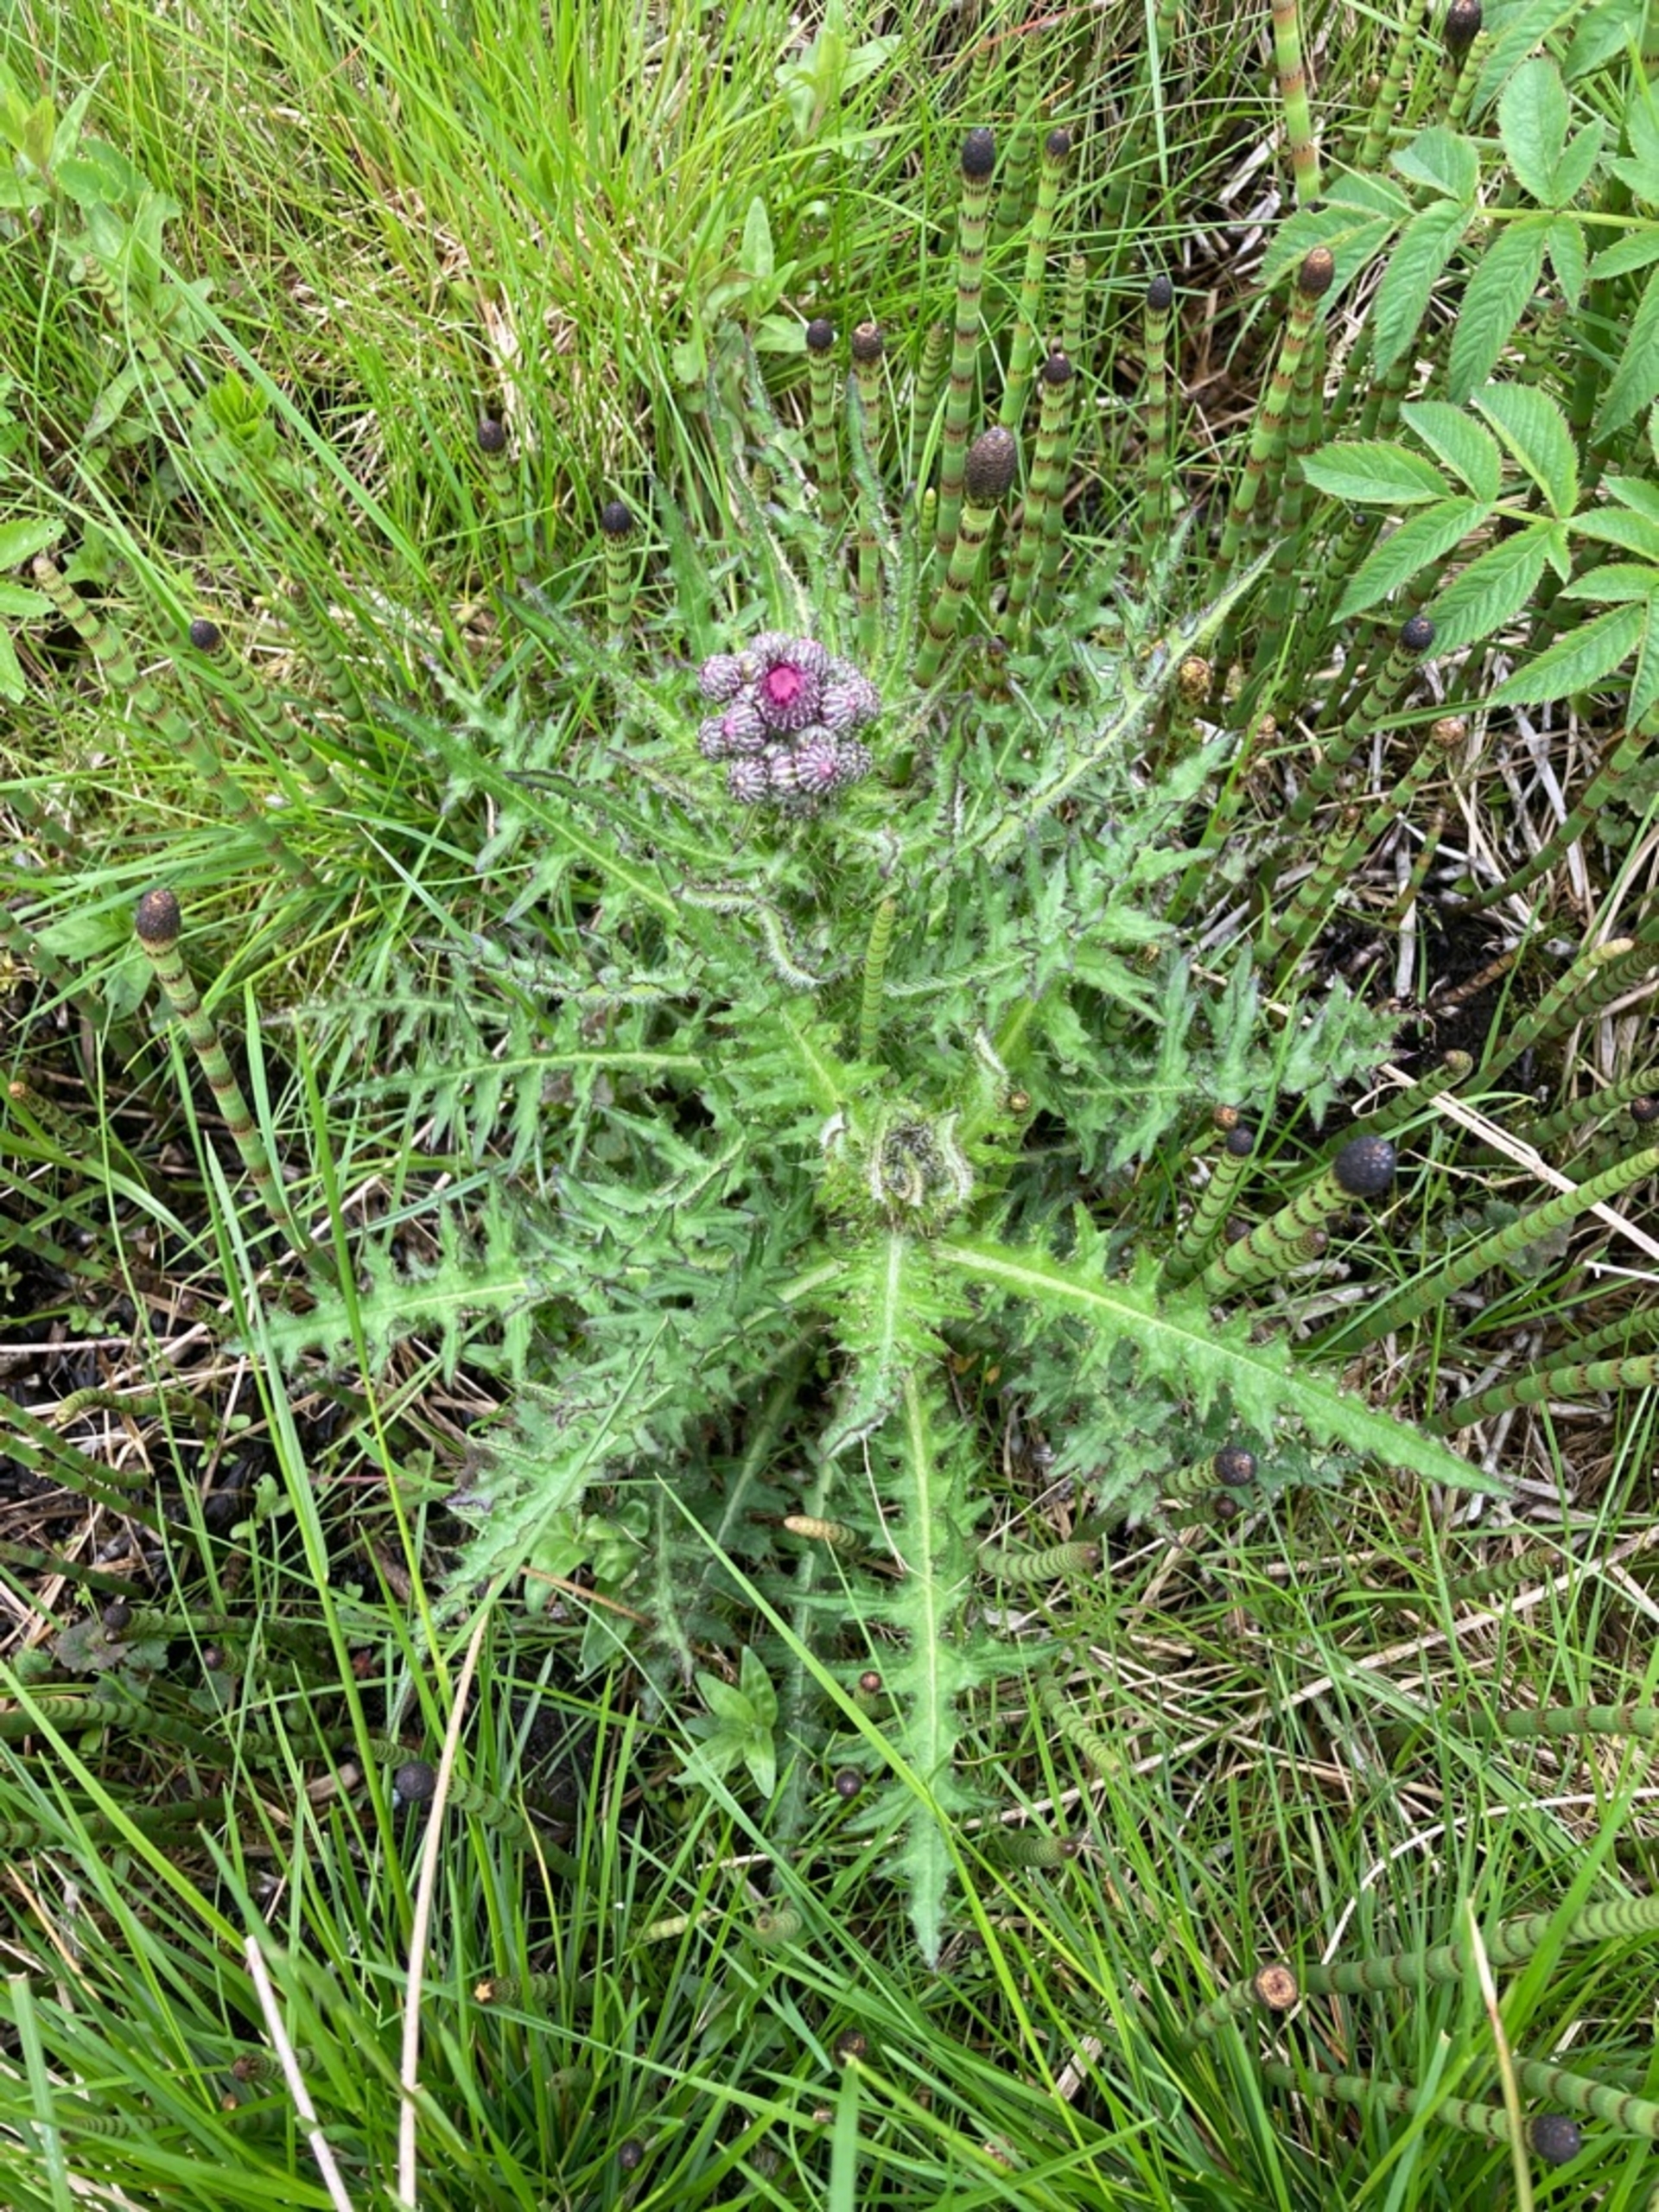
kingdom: Plantae
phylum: Tracheophyta
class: Magnoliopsida
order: Asterales
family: Asteraceae
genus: Cirsium
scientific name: Cirsium palustre
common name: Kær-tidsel
